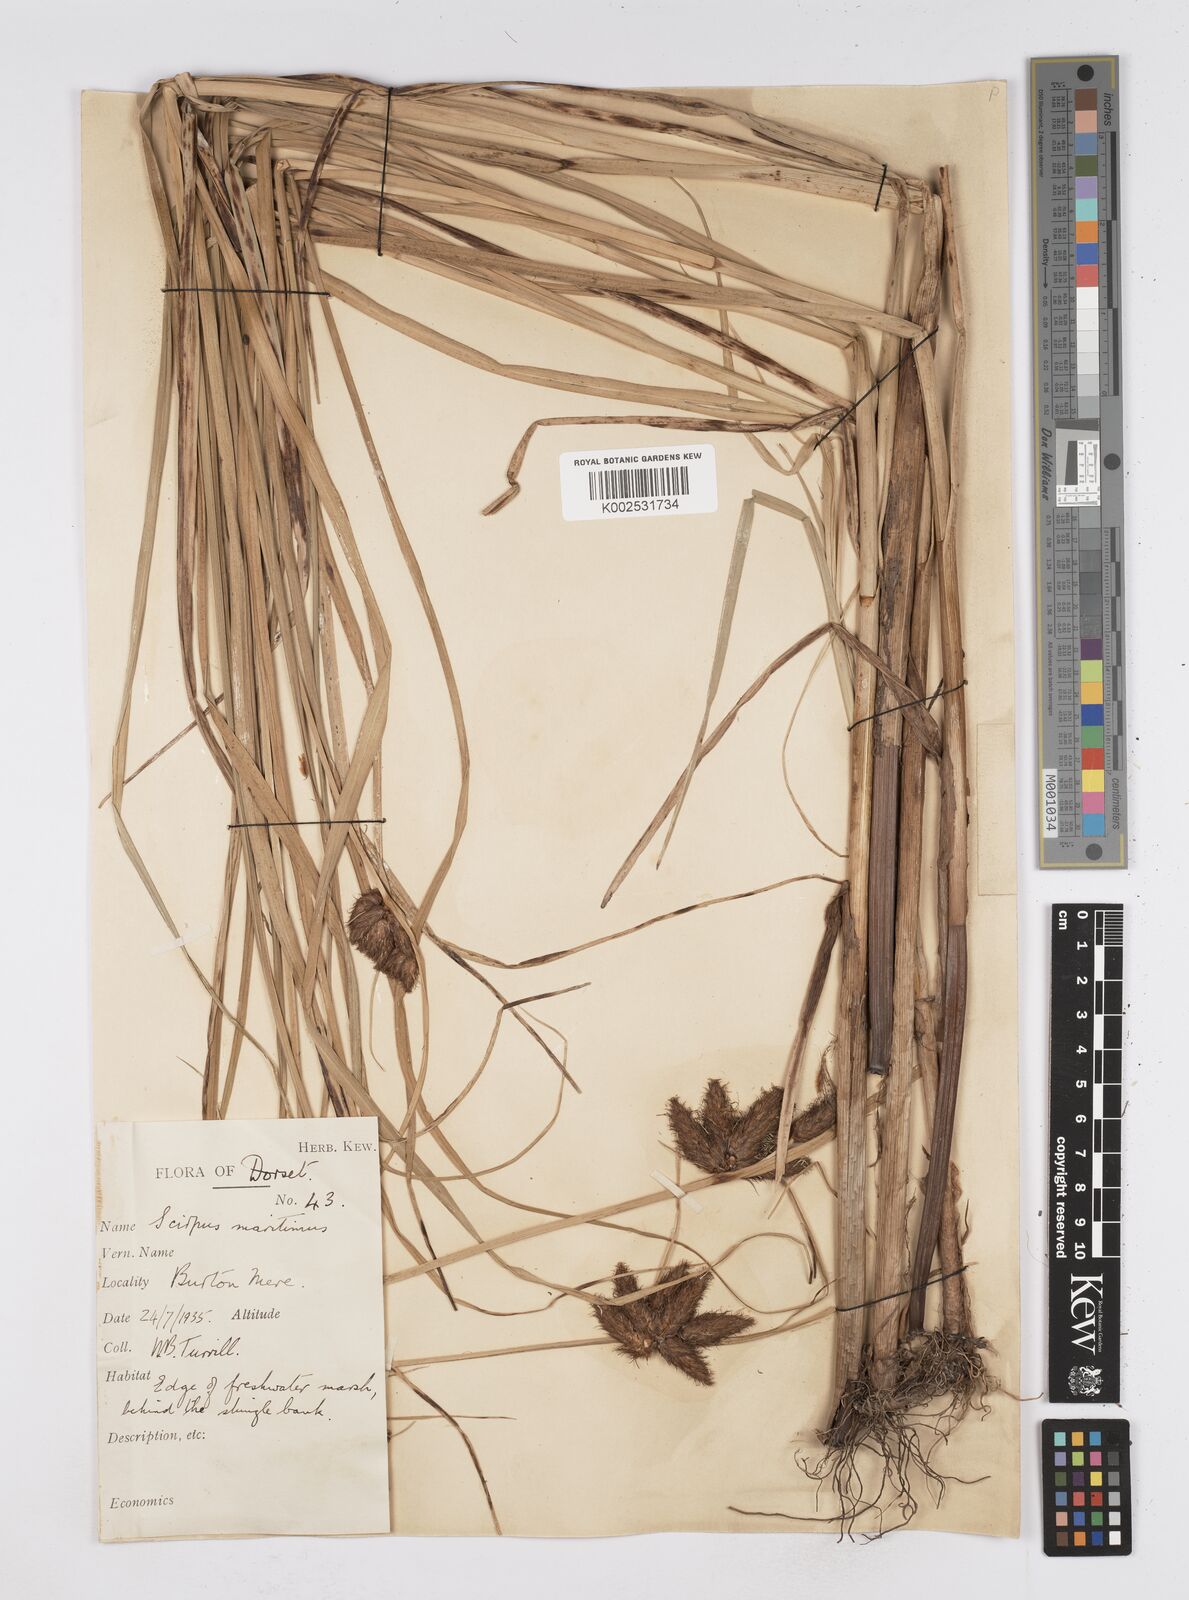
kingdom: Plantae
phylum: Tracheophyta
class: Liliopsida
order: Poales
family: Cyperaceae
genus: Bolboschoenus
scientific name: Bolboschoenus maritimus
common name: Sea club-rush
